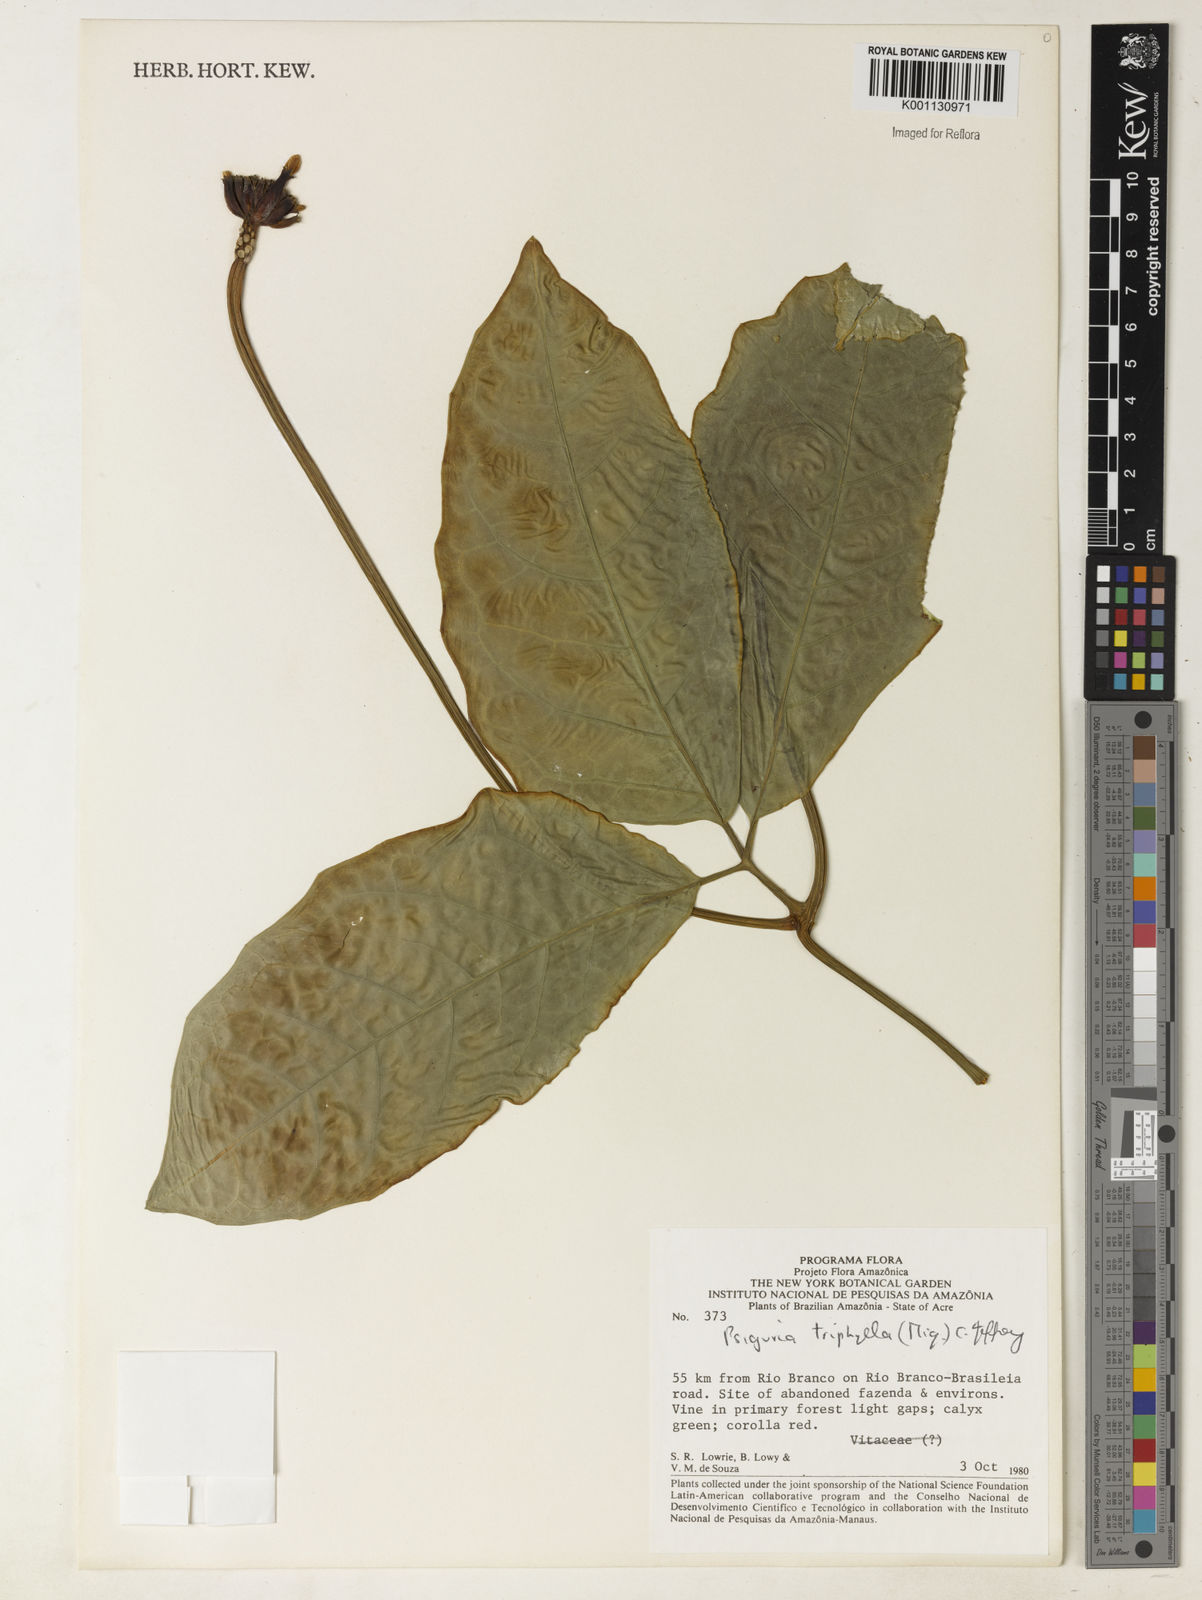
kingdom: Plantae
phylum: Tracheophyta
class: Magnoliopsida
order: Cucurbitales
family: Cucurbitaceae
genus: Psiguria
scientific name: Psiguria triphylla
